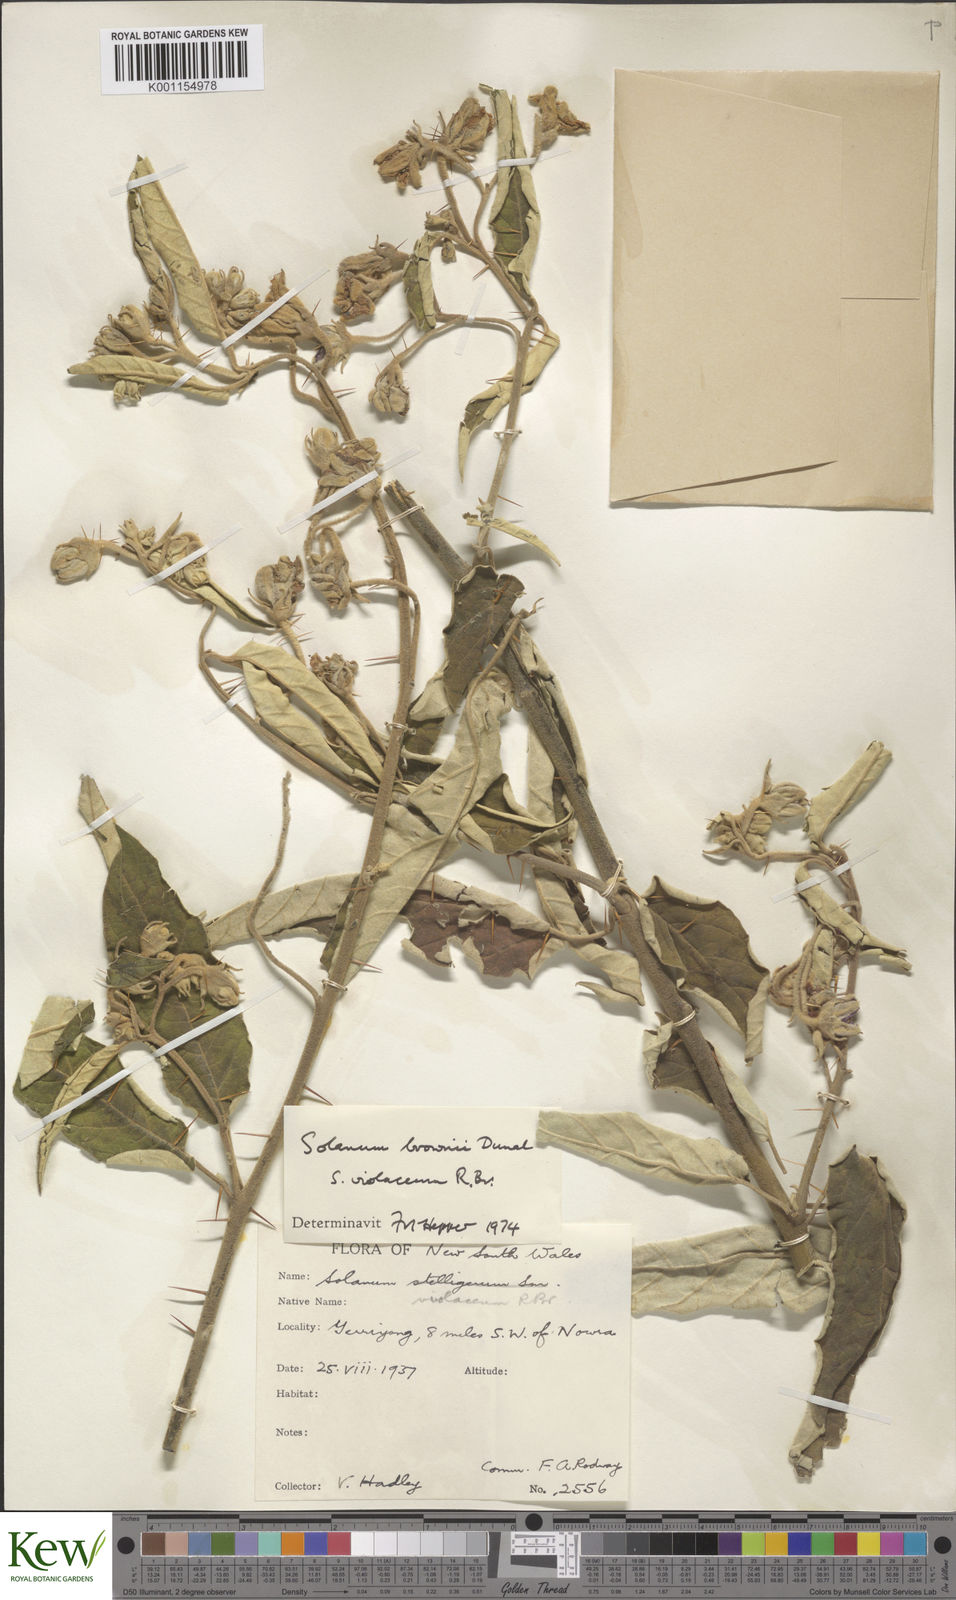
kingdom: Plantae
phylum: Tracheophyta
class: Magnoliopsida
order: Solanales
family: Solanaceae
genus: Solanum
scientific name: Solanum brownii
